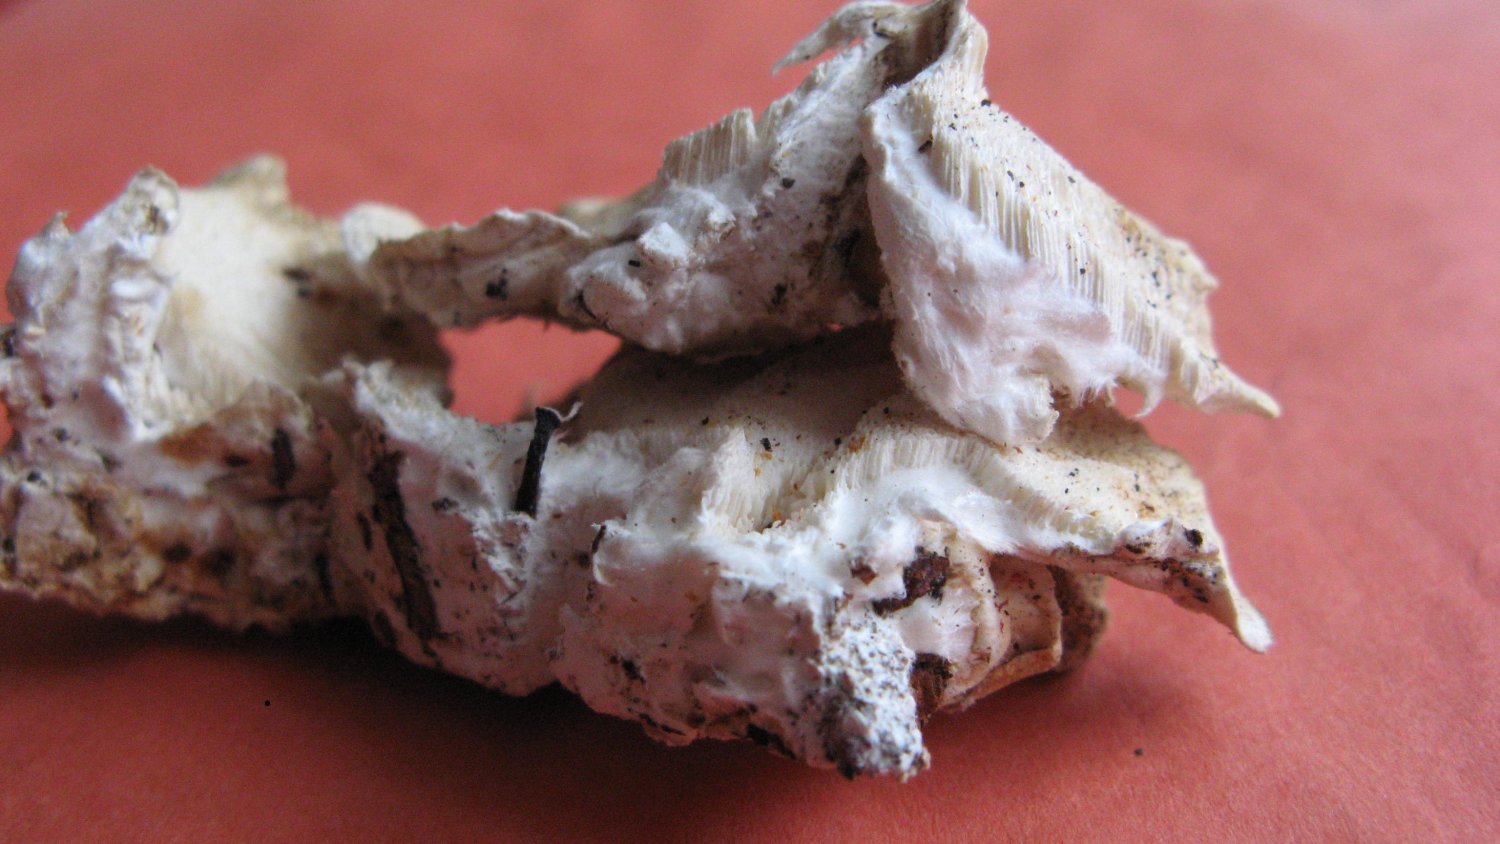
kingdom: Fungi
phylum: Basidiomycota
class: Agaricomycetes
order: Polyporales
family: Polyporaceae
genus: Trametes
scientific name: Trametes versicolor
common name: broget læderporesvamp
